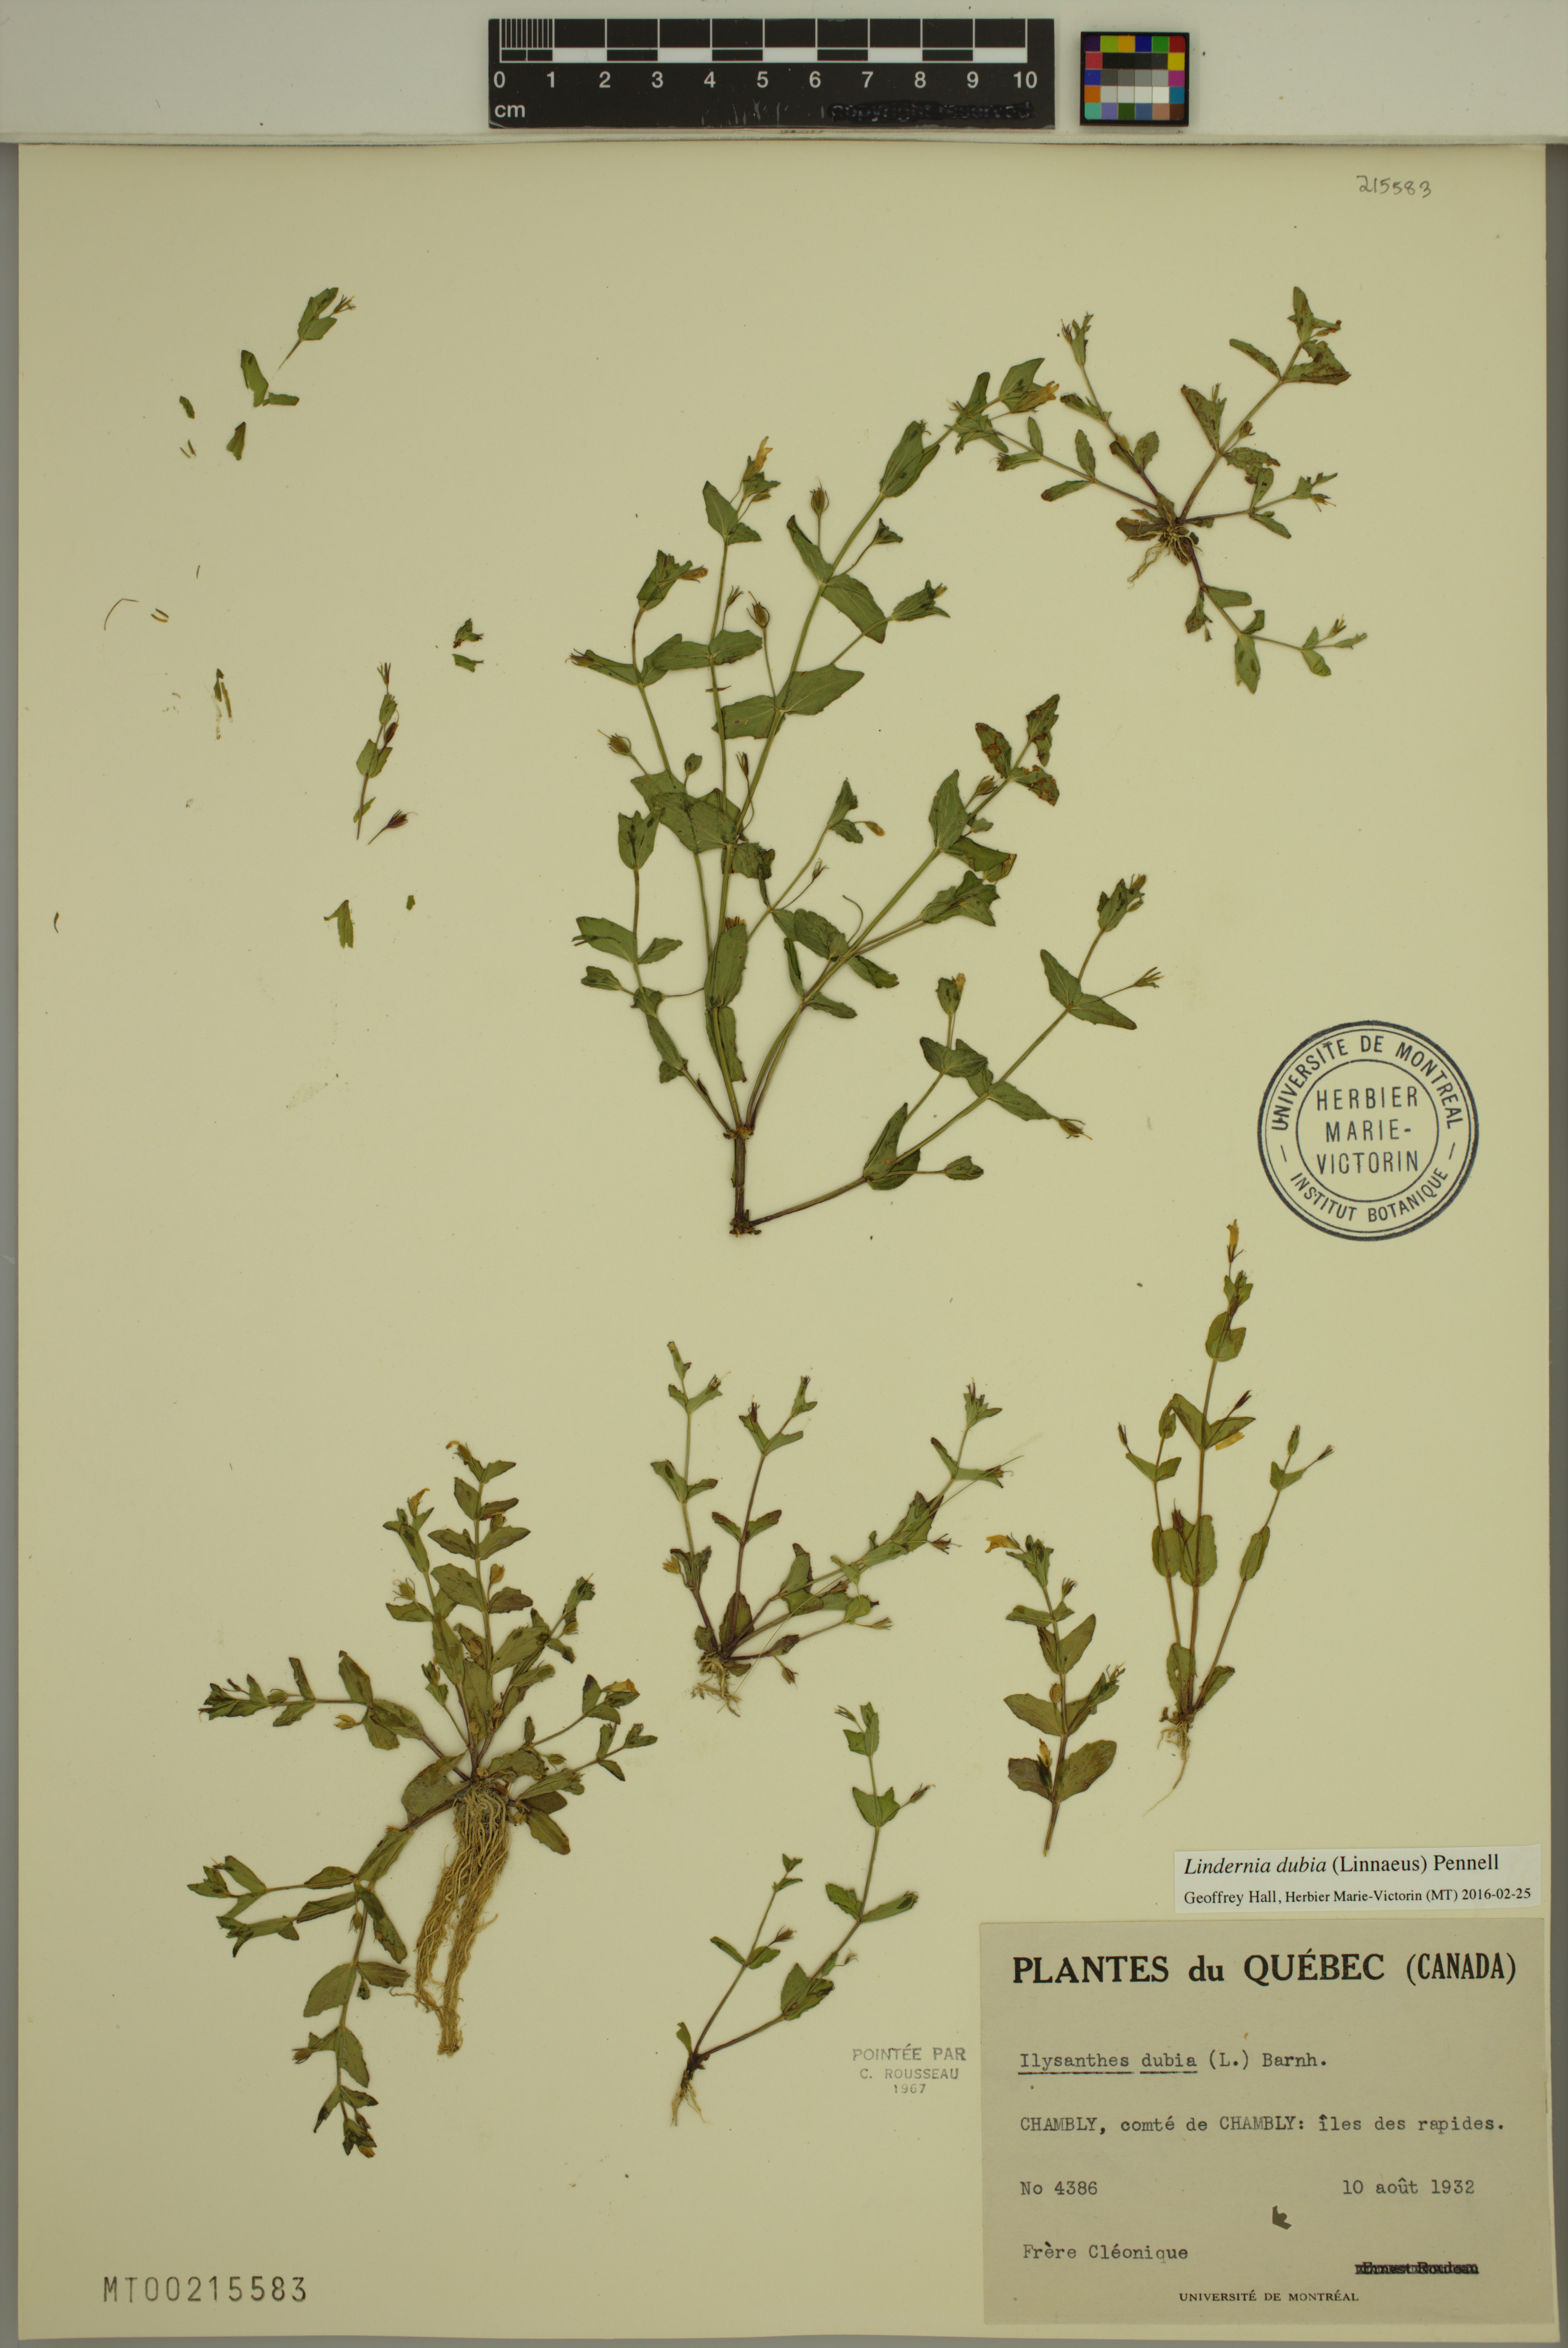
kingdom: Plantae
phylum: Tracheophyta
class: Magnoliopsida
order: Lamiales
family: Linderniaceae
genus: Lindernia
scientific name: Lindernia dubia
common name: Annual false pimpernel
